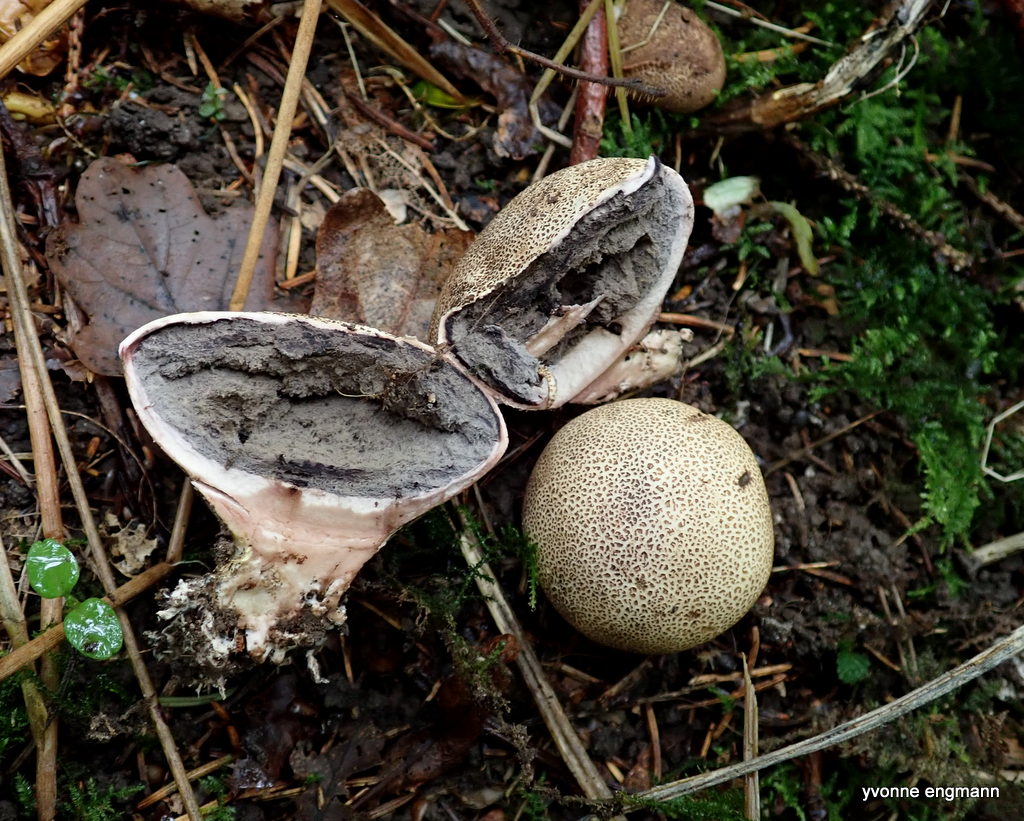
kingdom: Fungi
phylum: Basidiomycota
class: Agaricomycetes
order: Boletales
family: Sclerodermataceae
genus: Scleroderma
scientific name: Scleroderma verrucosum
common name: stilket bruskbold
